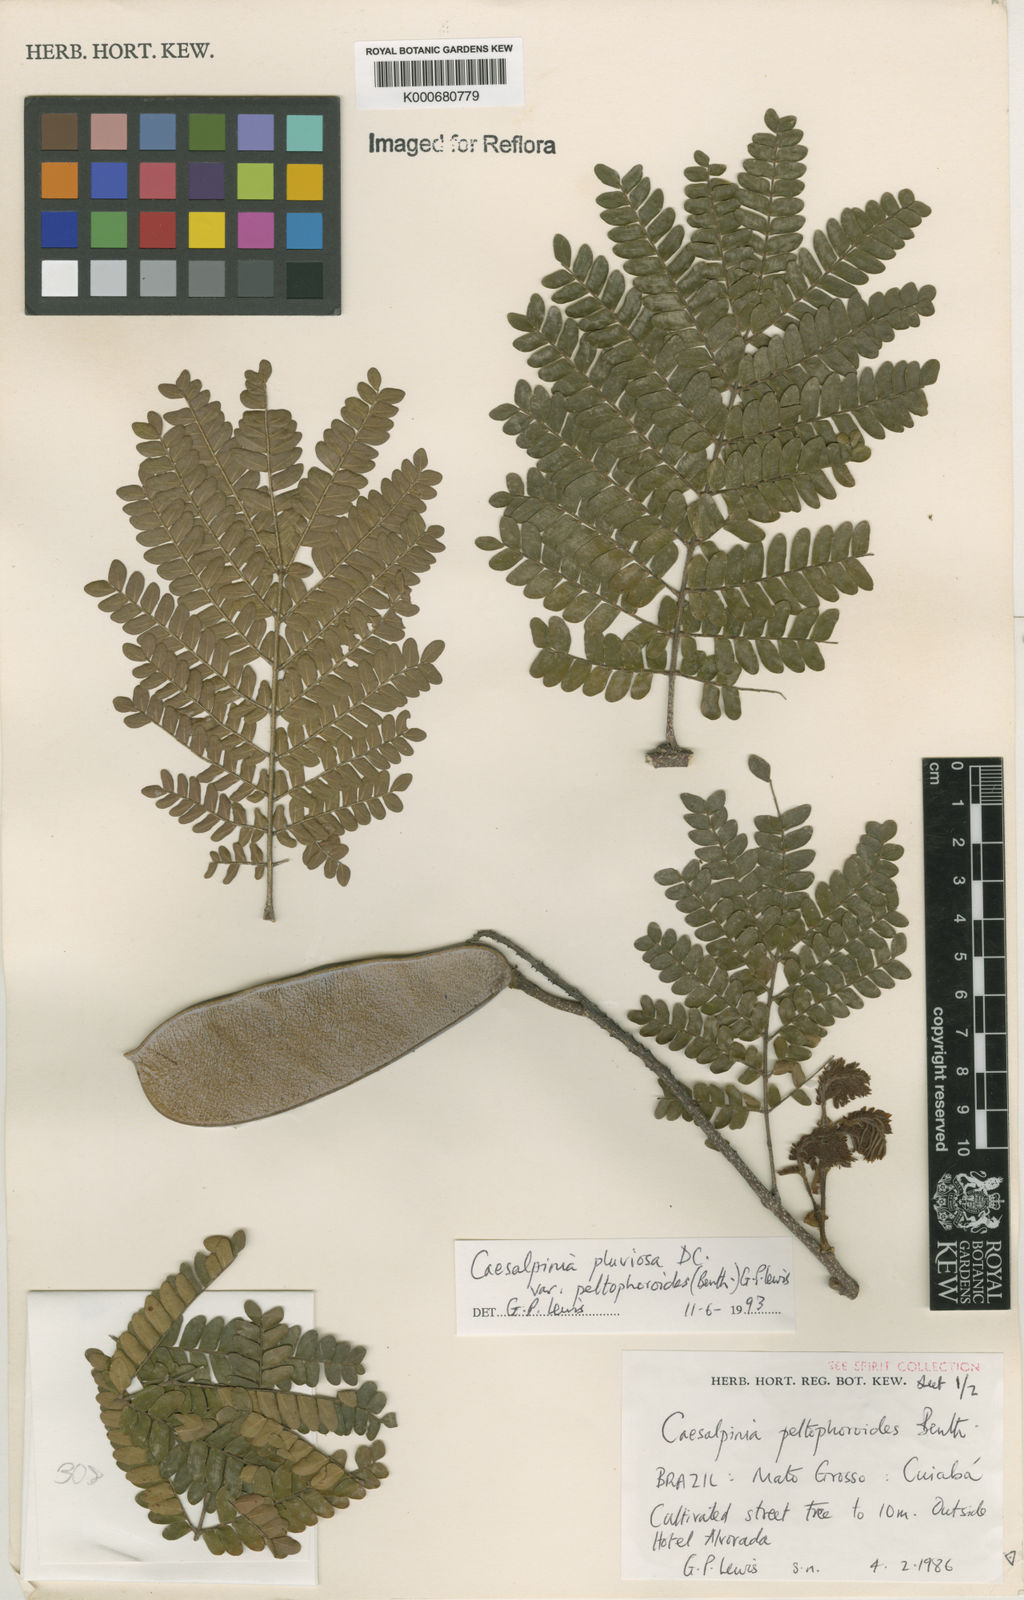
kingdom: Plantae
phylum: Tracheophyta
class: Magnoliopsida
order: Fabales
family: Fabaceae
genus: Cenostigma
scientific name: Cenostigma pluviosum
